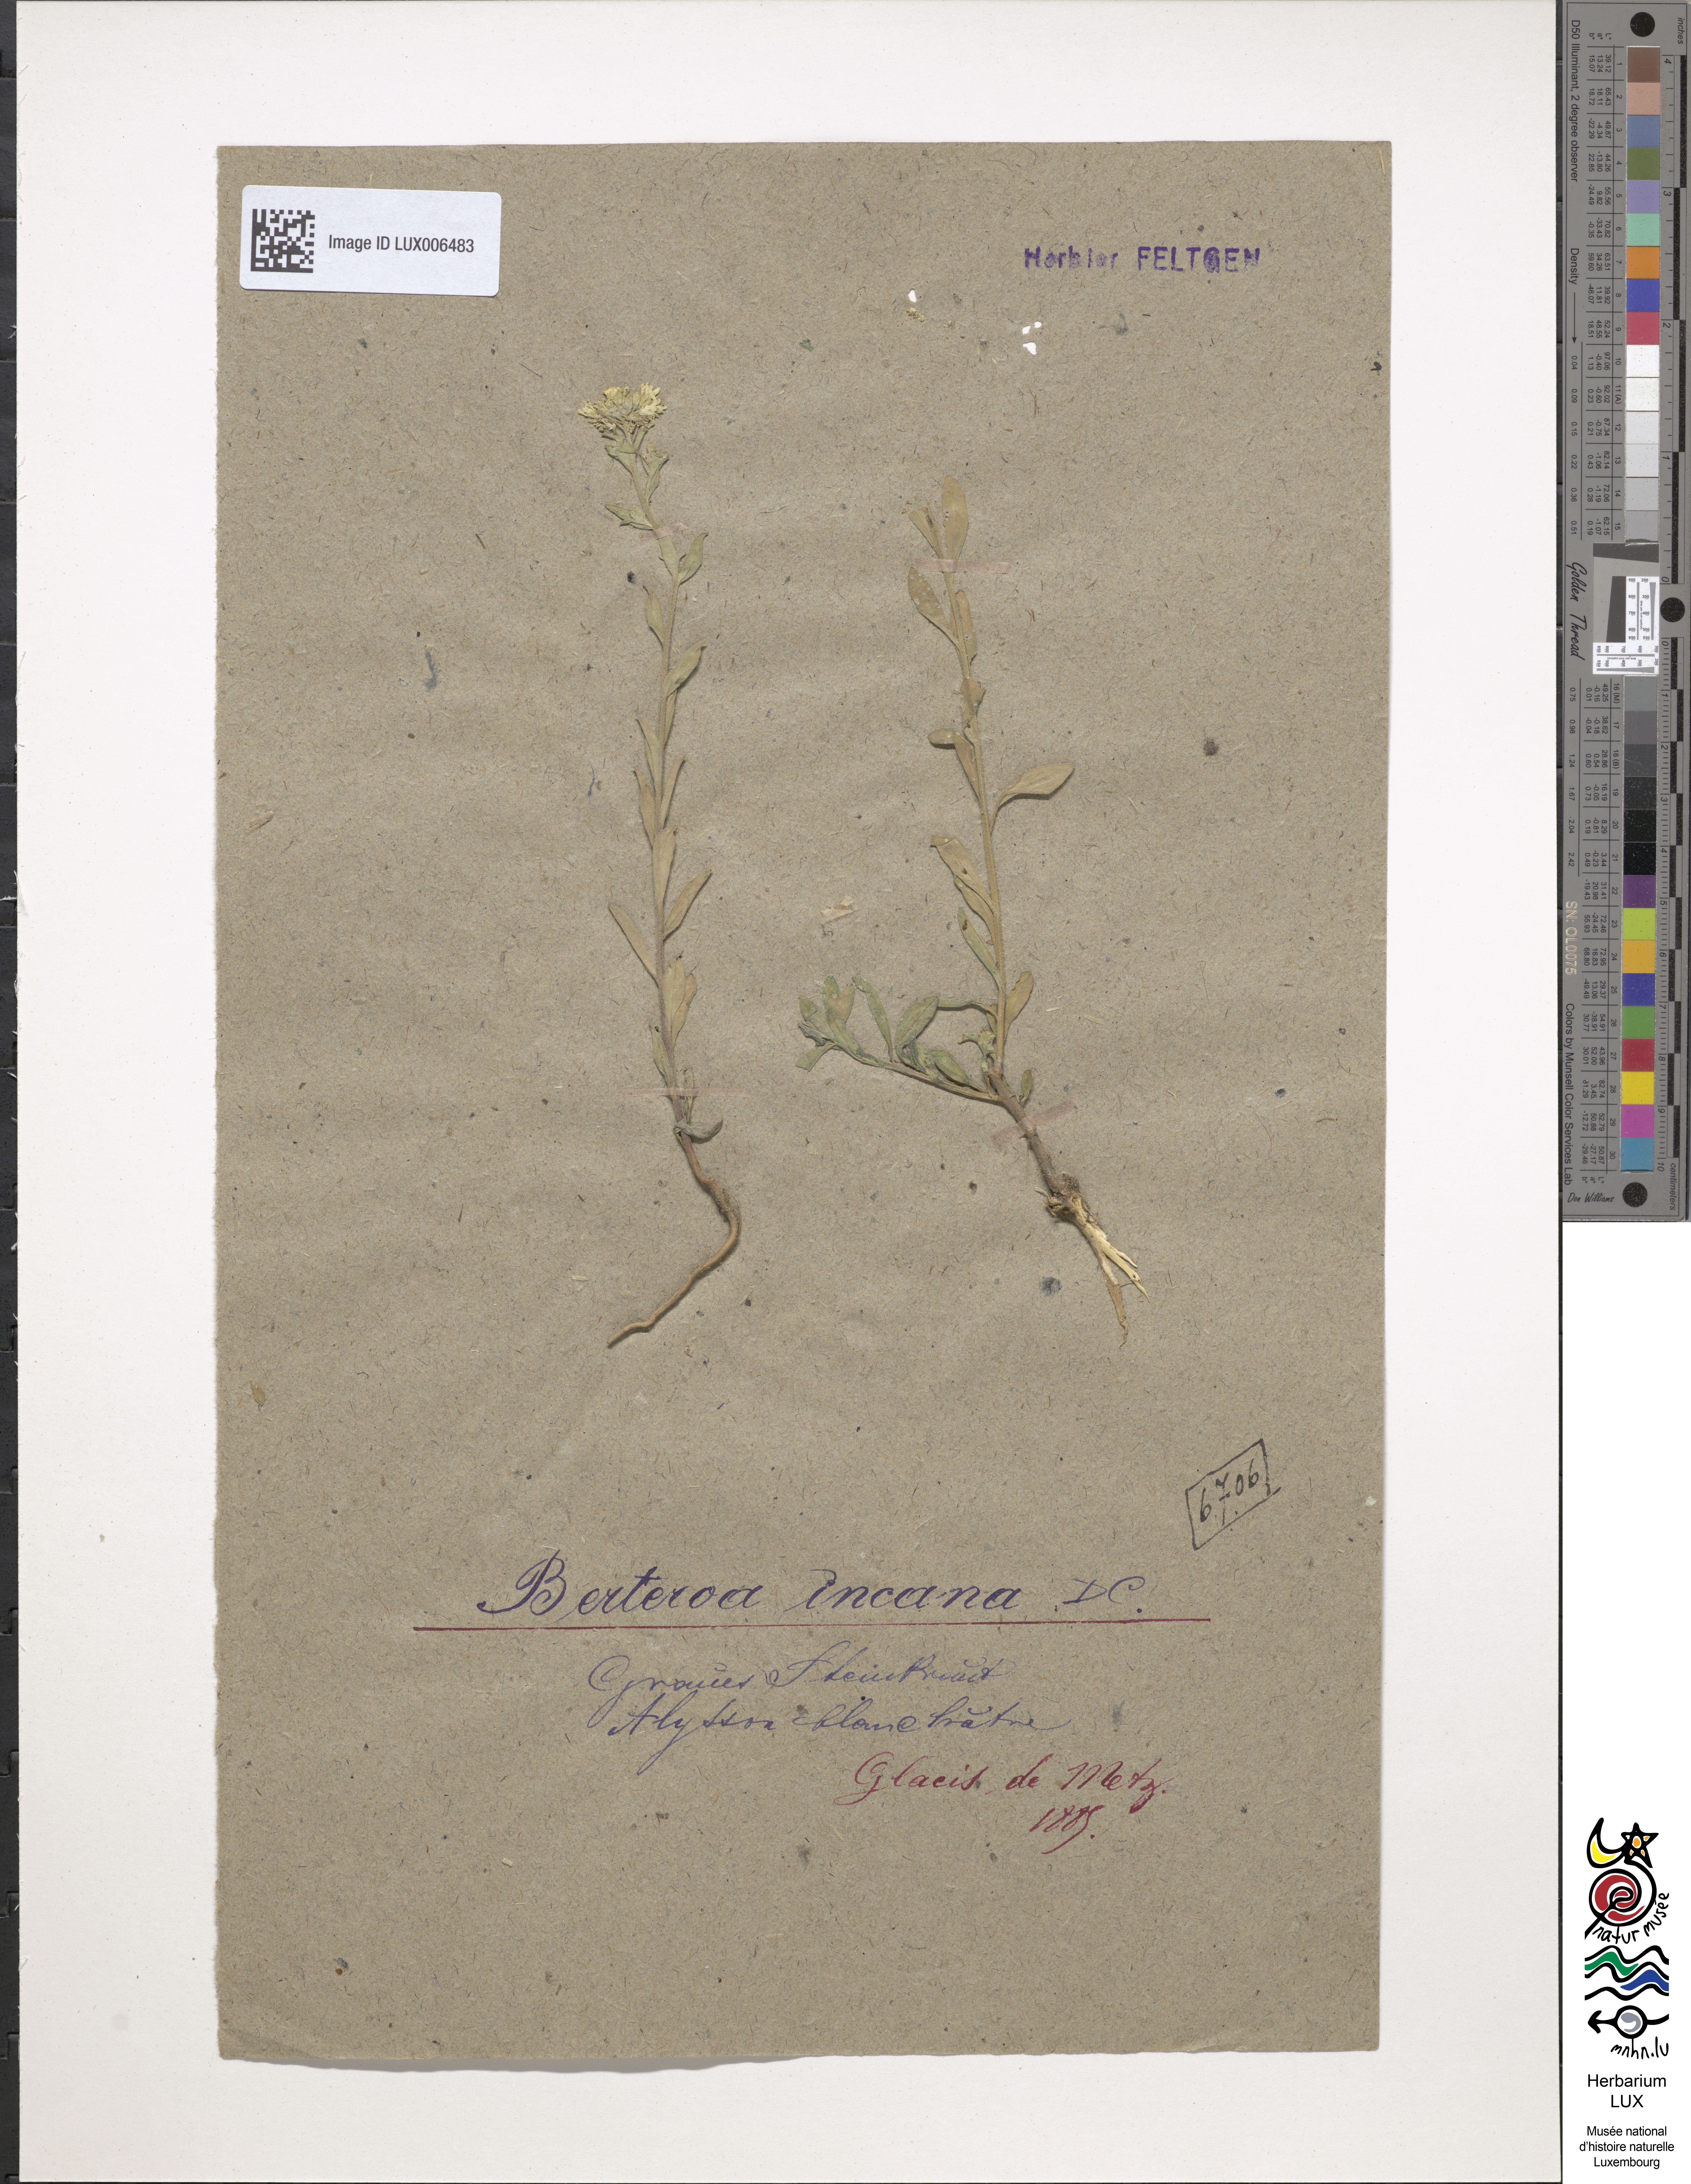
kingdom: Plantae
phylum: Tracheophyta
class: Magnoliopsida
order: Brassicales
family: Brassicaceae
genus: Berteroa
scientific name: Berteroa incana
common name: Hoary alison
